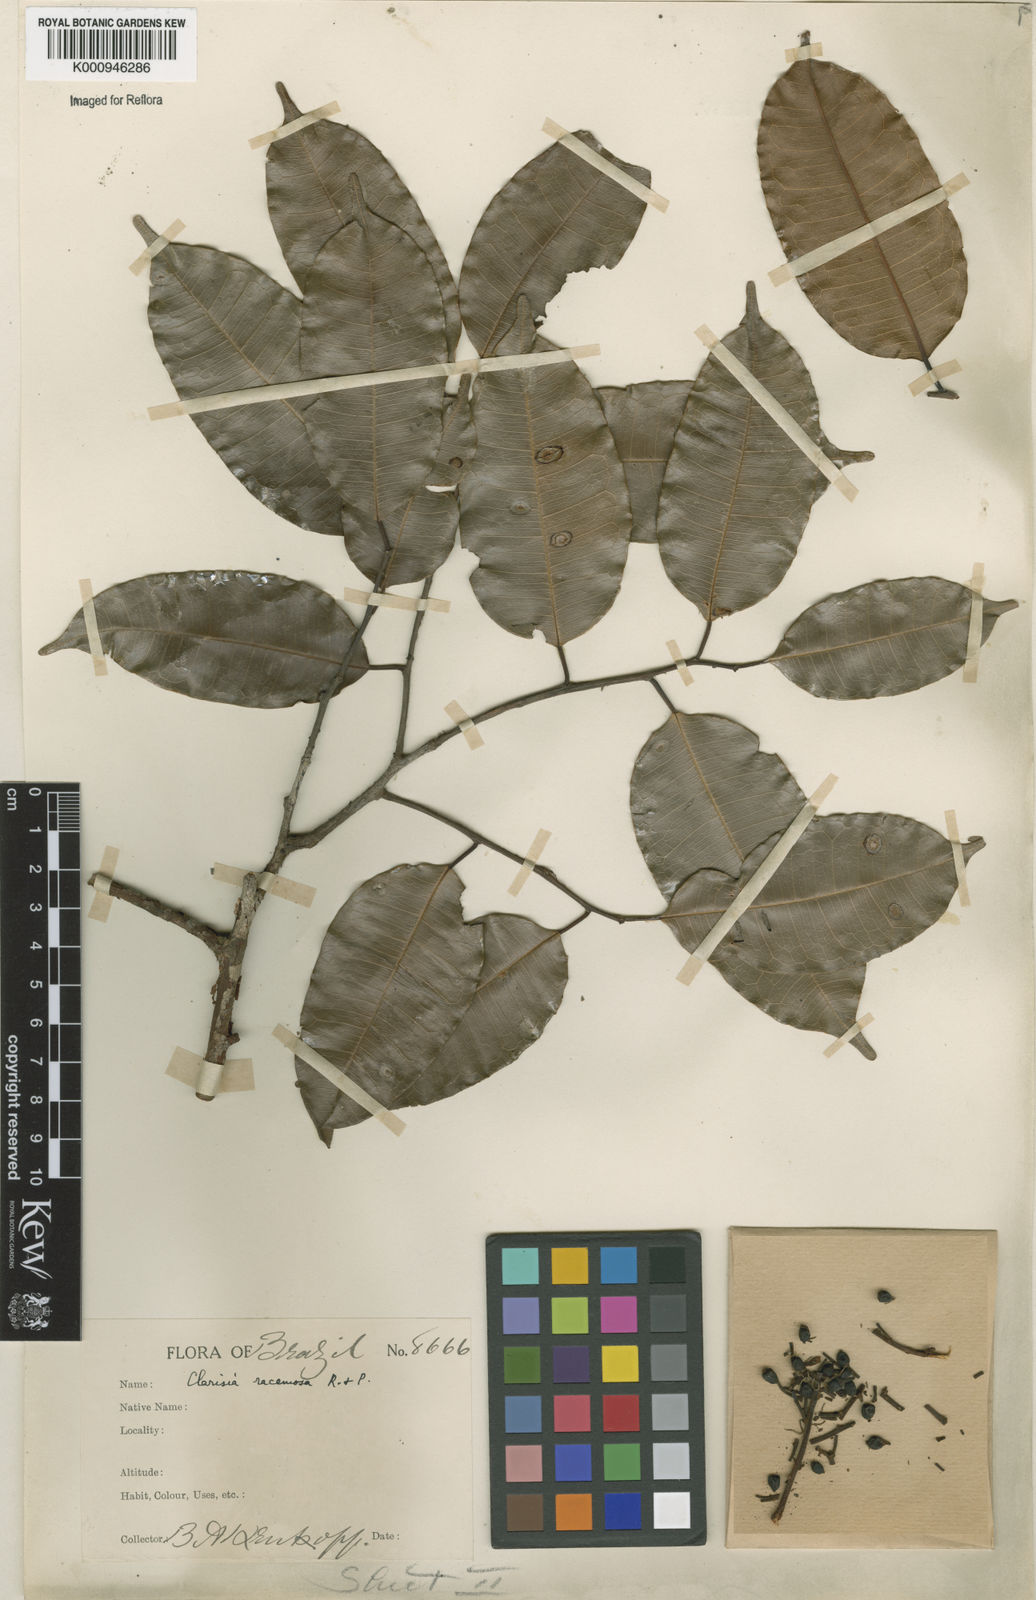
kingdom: Plantae
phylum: Tracheophyta
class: Magnoliopsida
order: Rosales
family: Moraceae
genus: Clarisia
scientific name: Clarisia racemosa
